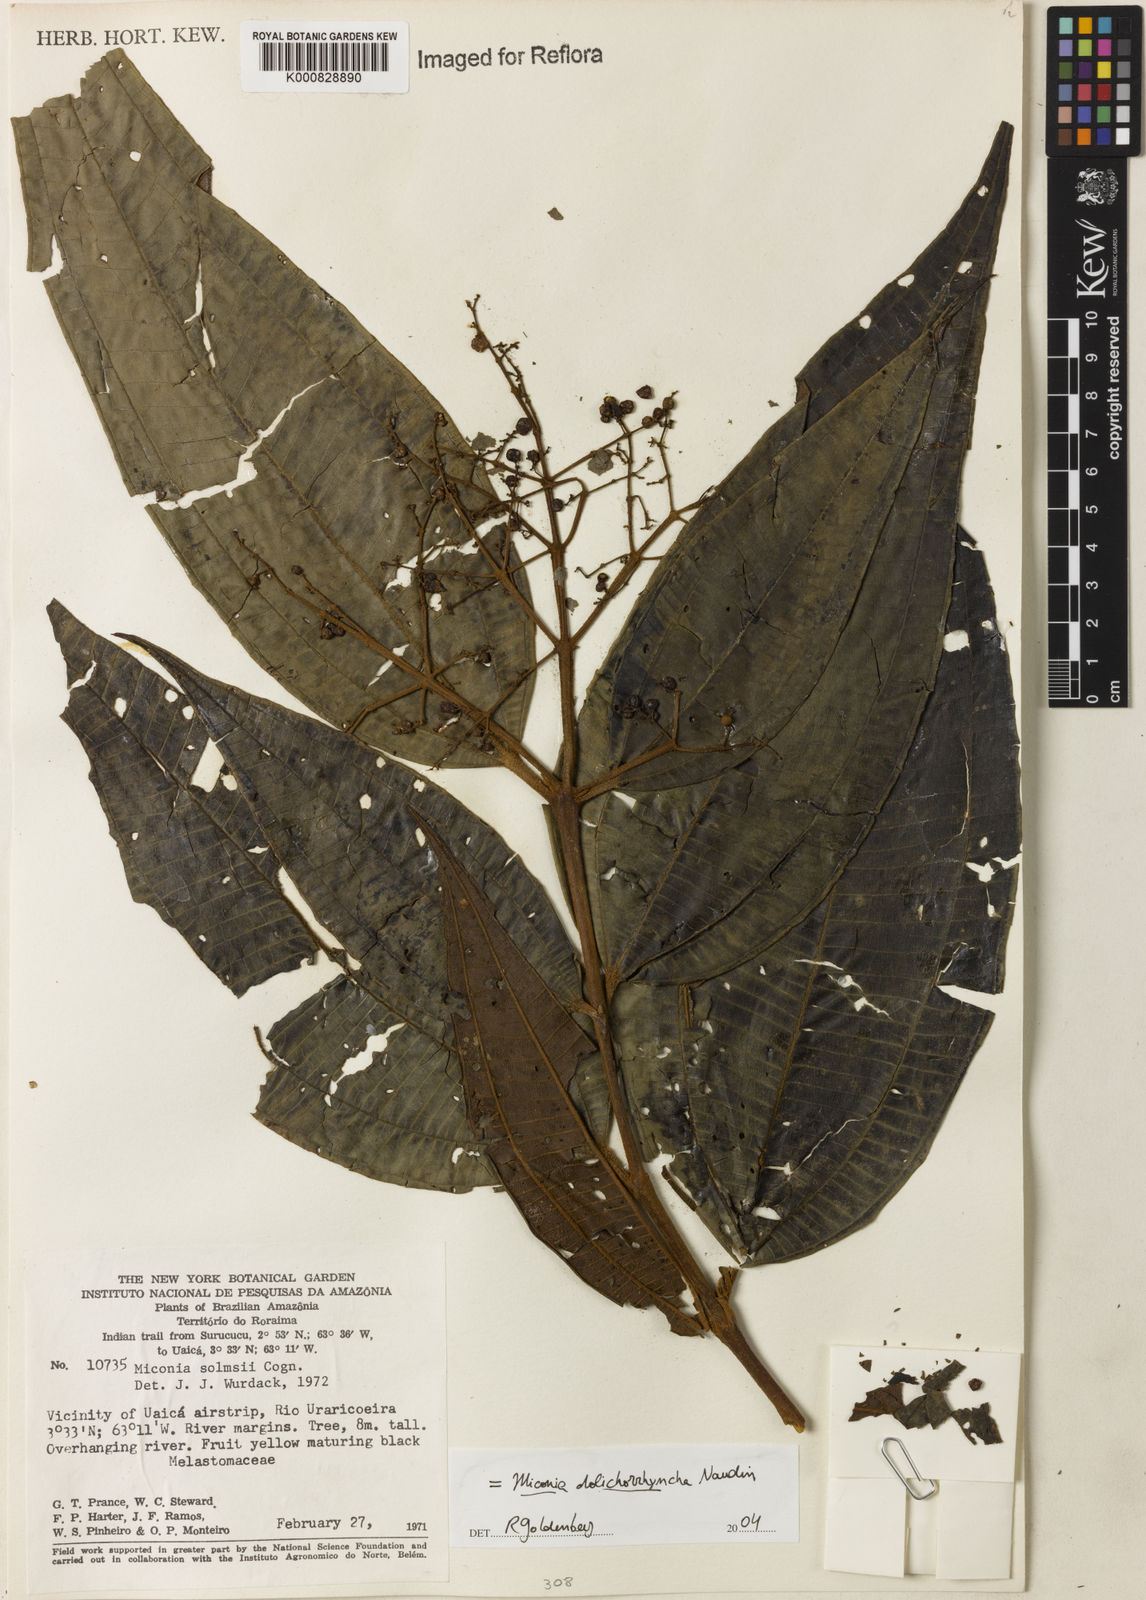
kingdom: Plantae
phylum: Tracheophyta
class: Magnoliopsida
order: Myrtales
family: Melastomataceae
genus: Miconia
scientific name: Miconia dolichorrhyncha
